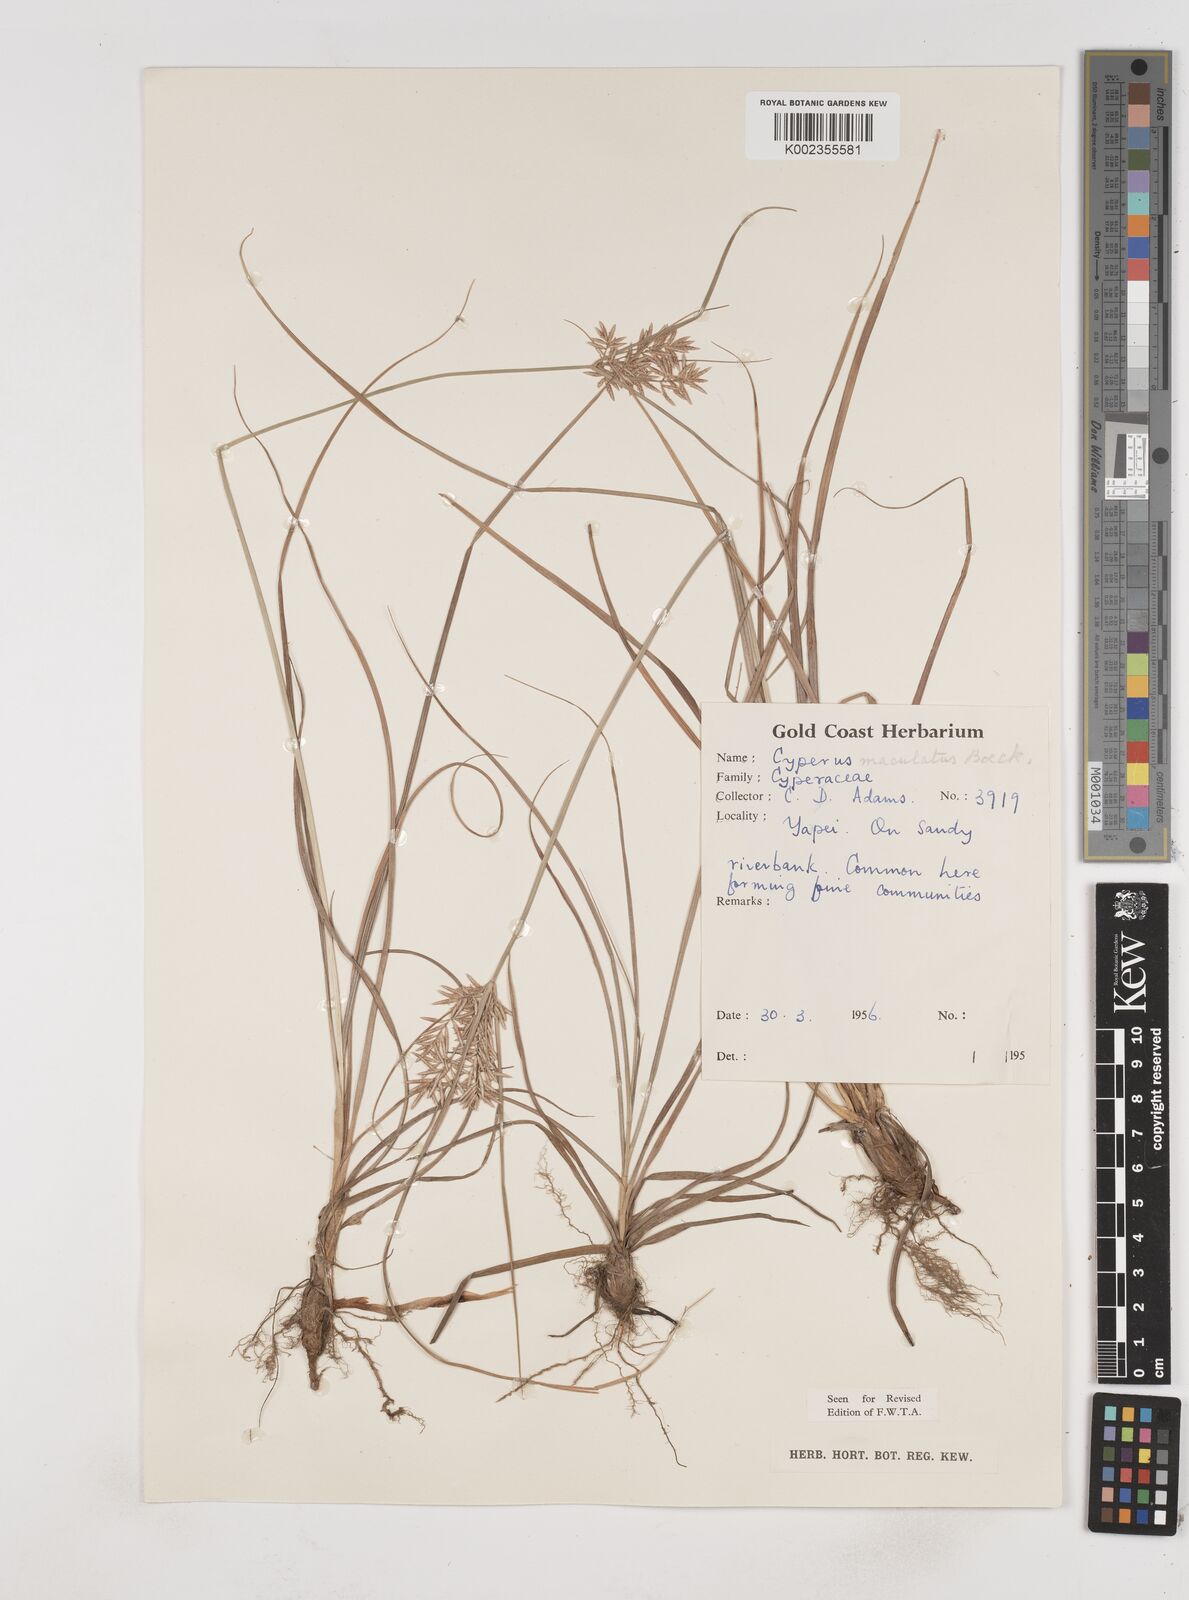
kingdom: Plantae
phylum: Tracheophyta
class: Liliopsida
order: Poales
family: Cyperaceae
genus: Cyperus
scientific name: Cyperus maculatus
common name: Maculated sedge
